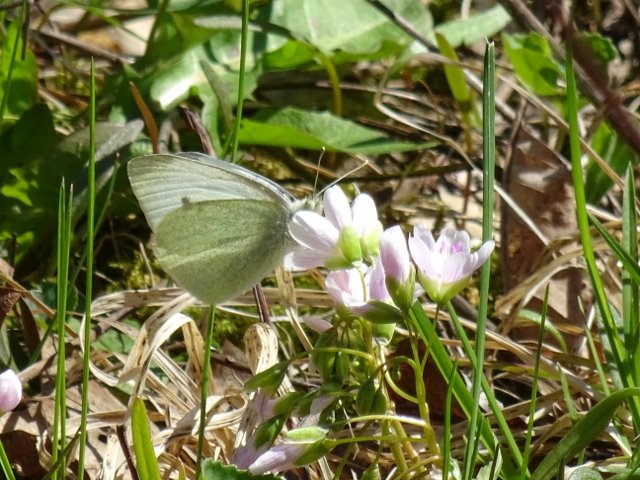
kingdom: Animalia
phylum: Arthropoda
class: Insecta
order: Lepidoptera
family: Pieridae
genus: Pieris
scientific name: Pieris rapae
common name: Cabbage White
